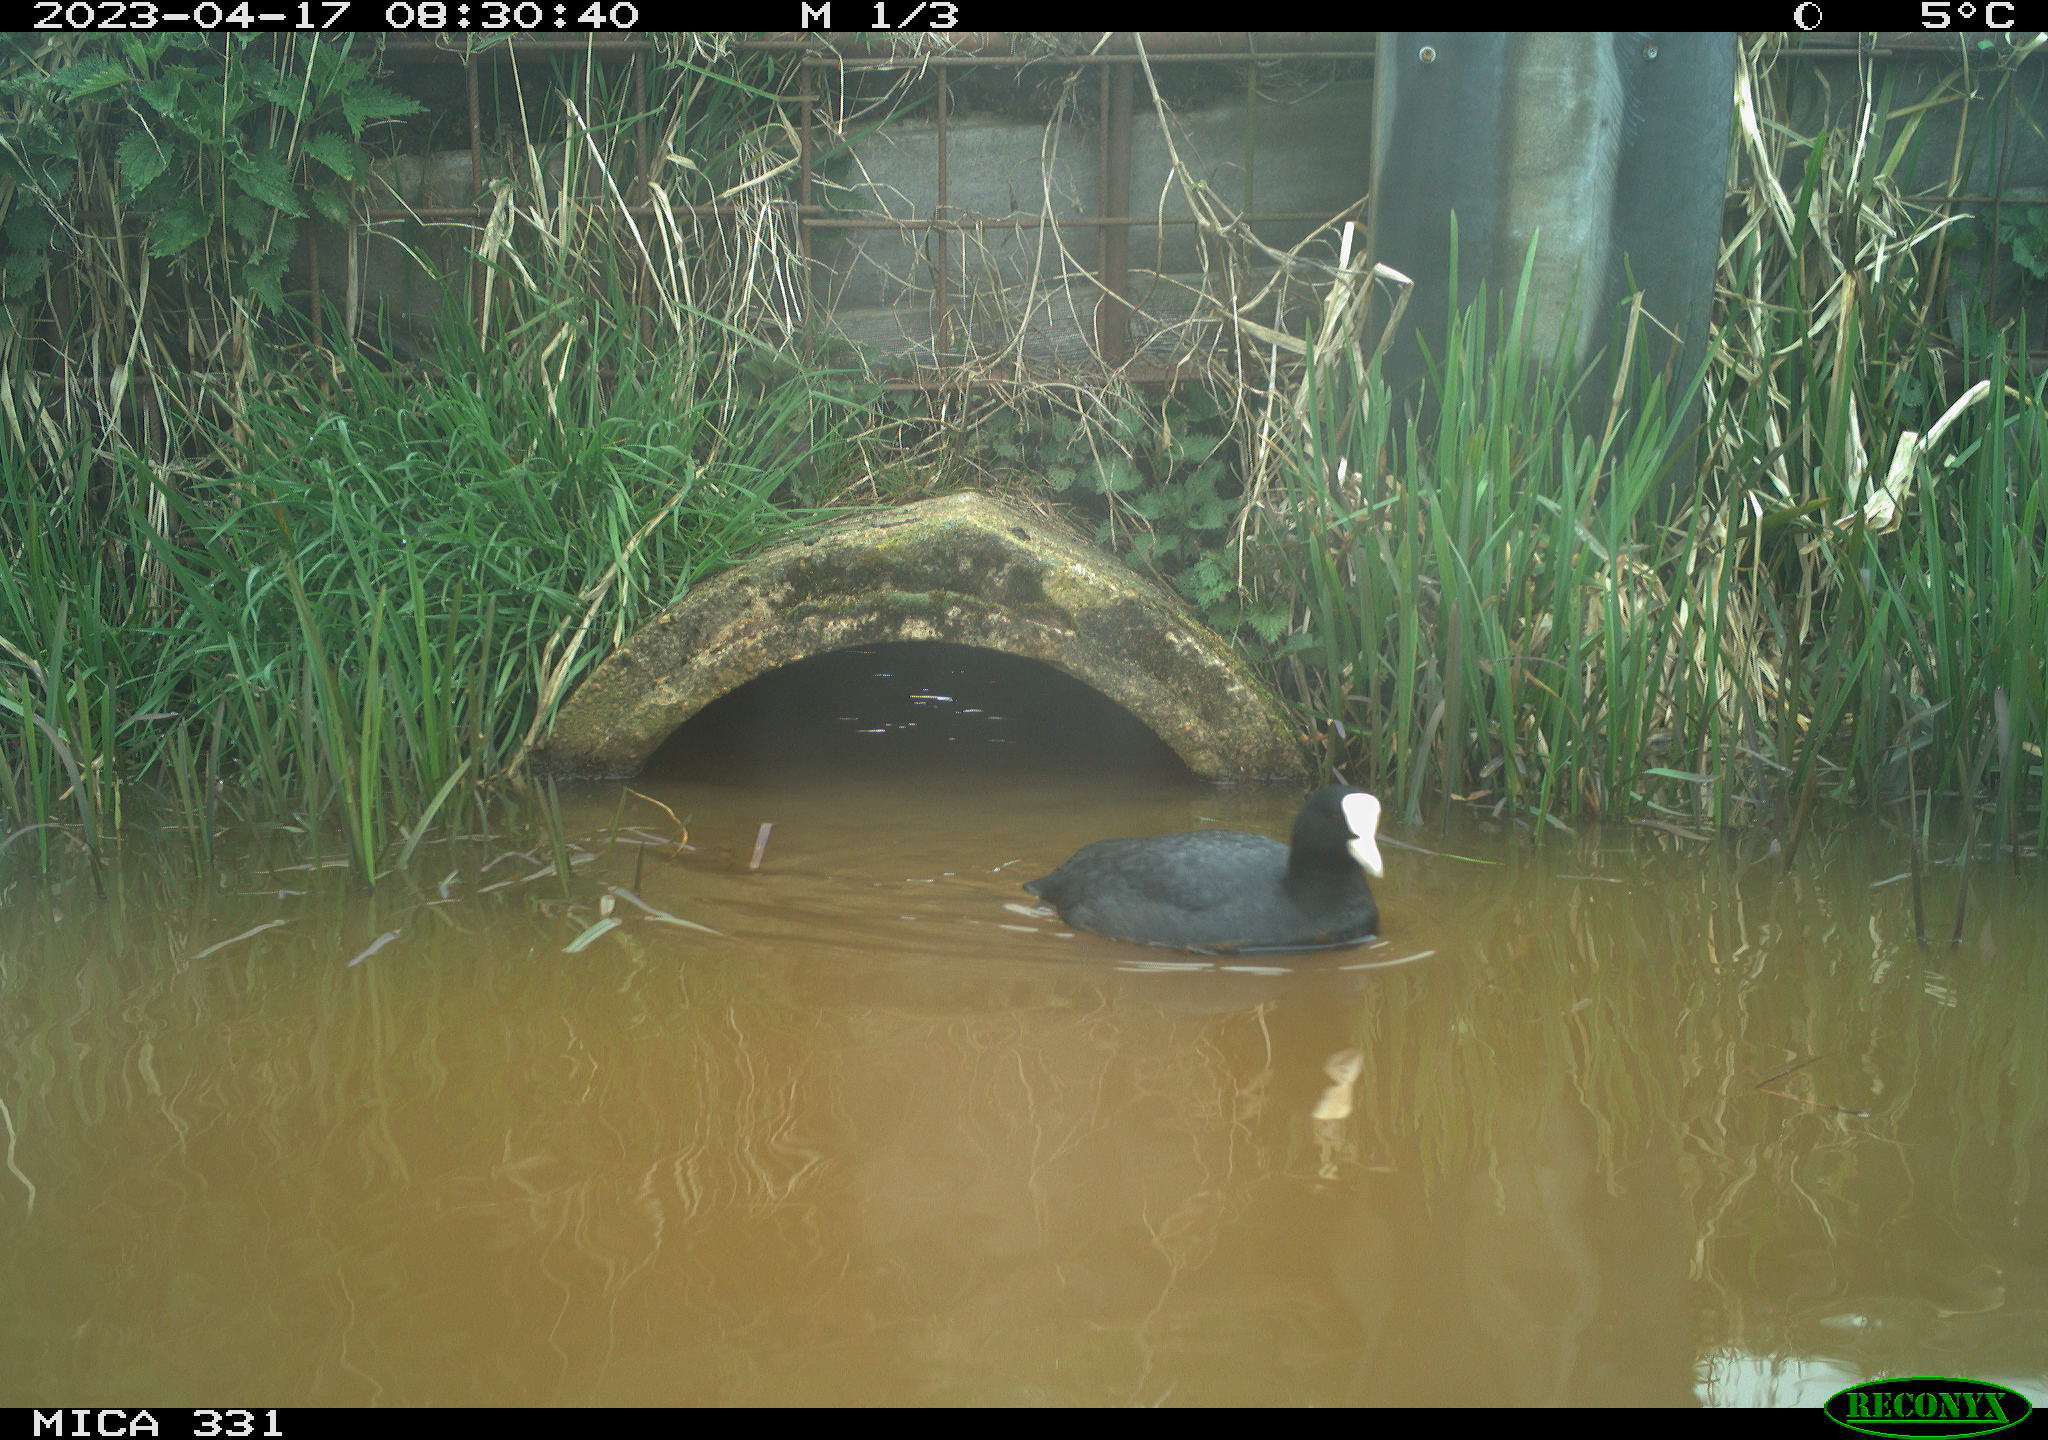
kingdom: Animalia
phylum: Chordata
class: Aves
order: Gruiformes
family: Rallidae
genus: Fulica
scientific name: Fulica atra
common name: Eurasian coot
